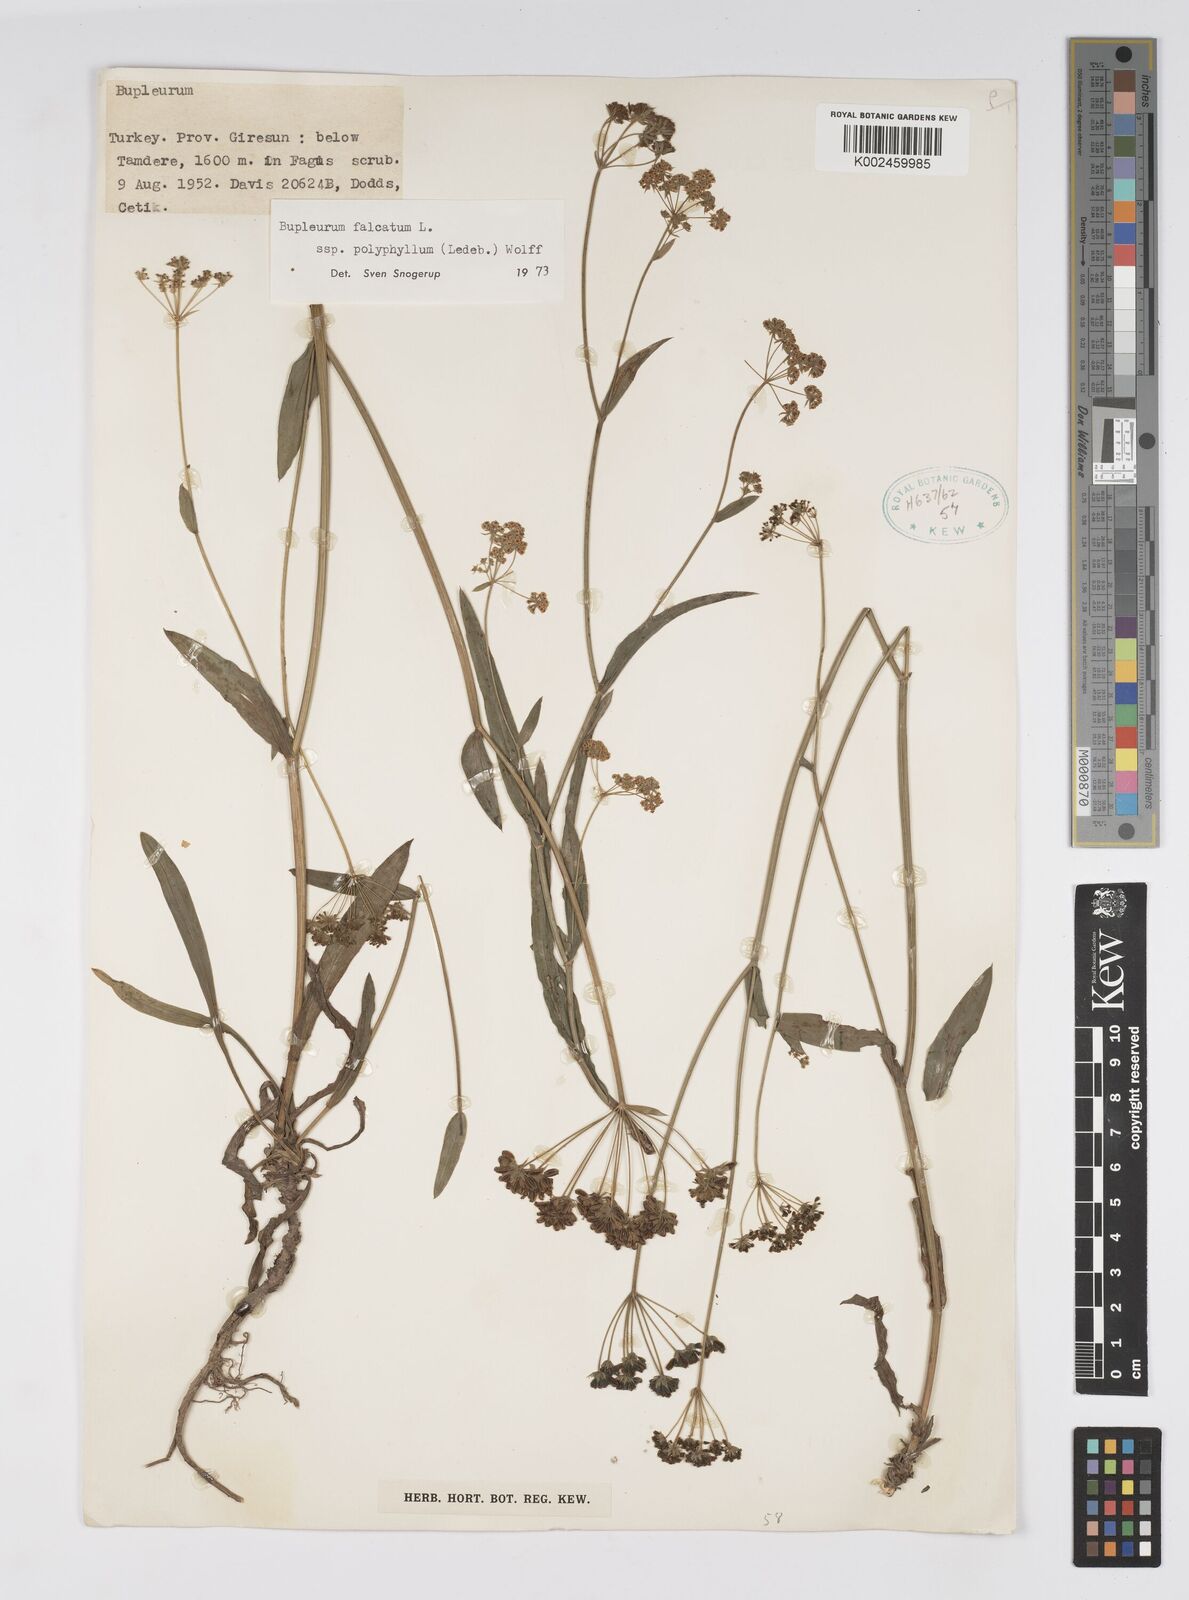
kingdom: Plantae
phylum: Tracheophyta
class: Magnoliopsida
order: Apiales
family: Apiaceae
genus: Bupleurum
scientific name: Bupleurum falcatum
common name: Sickle-leaved hare's-ear
